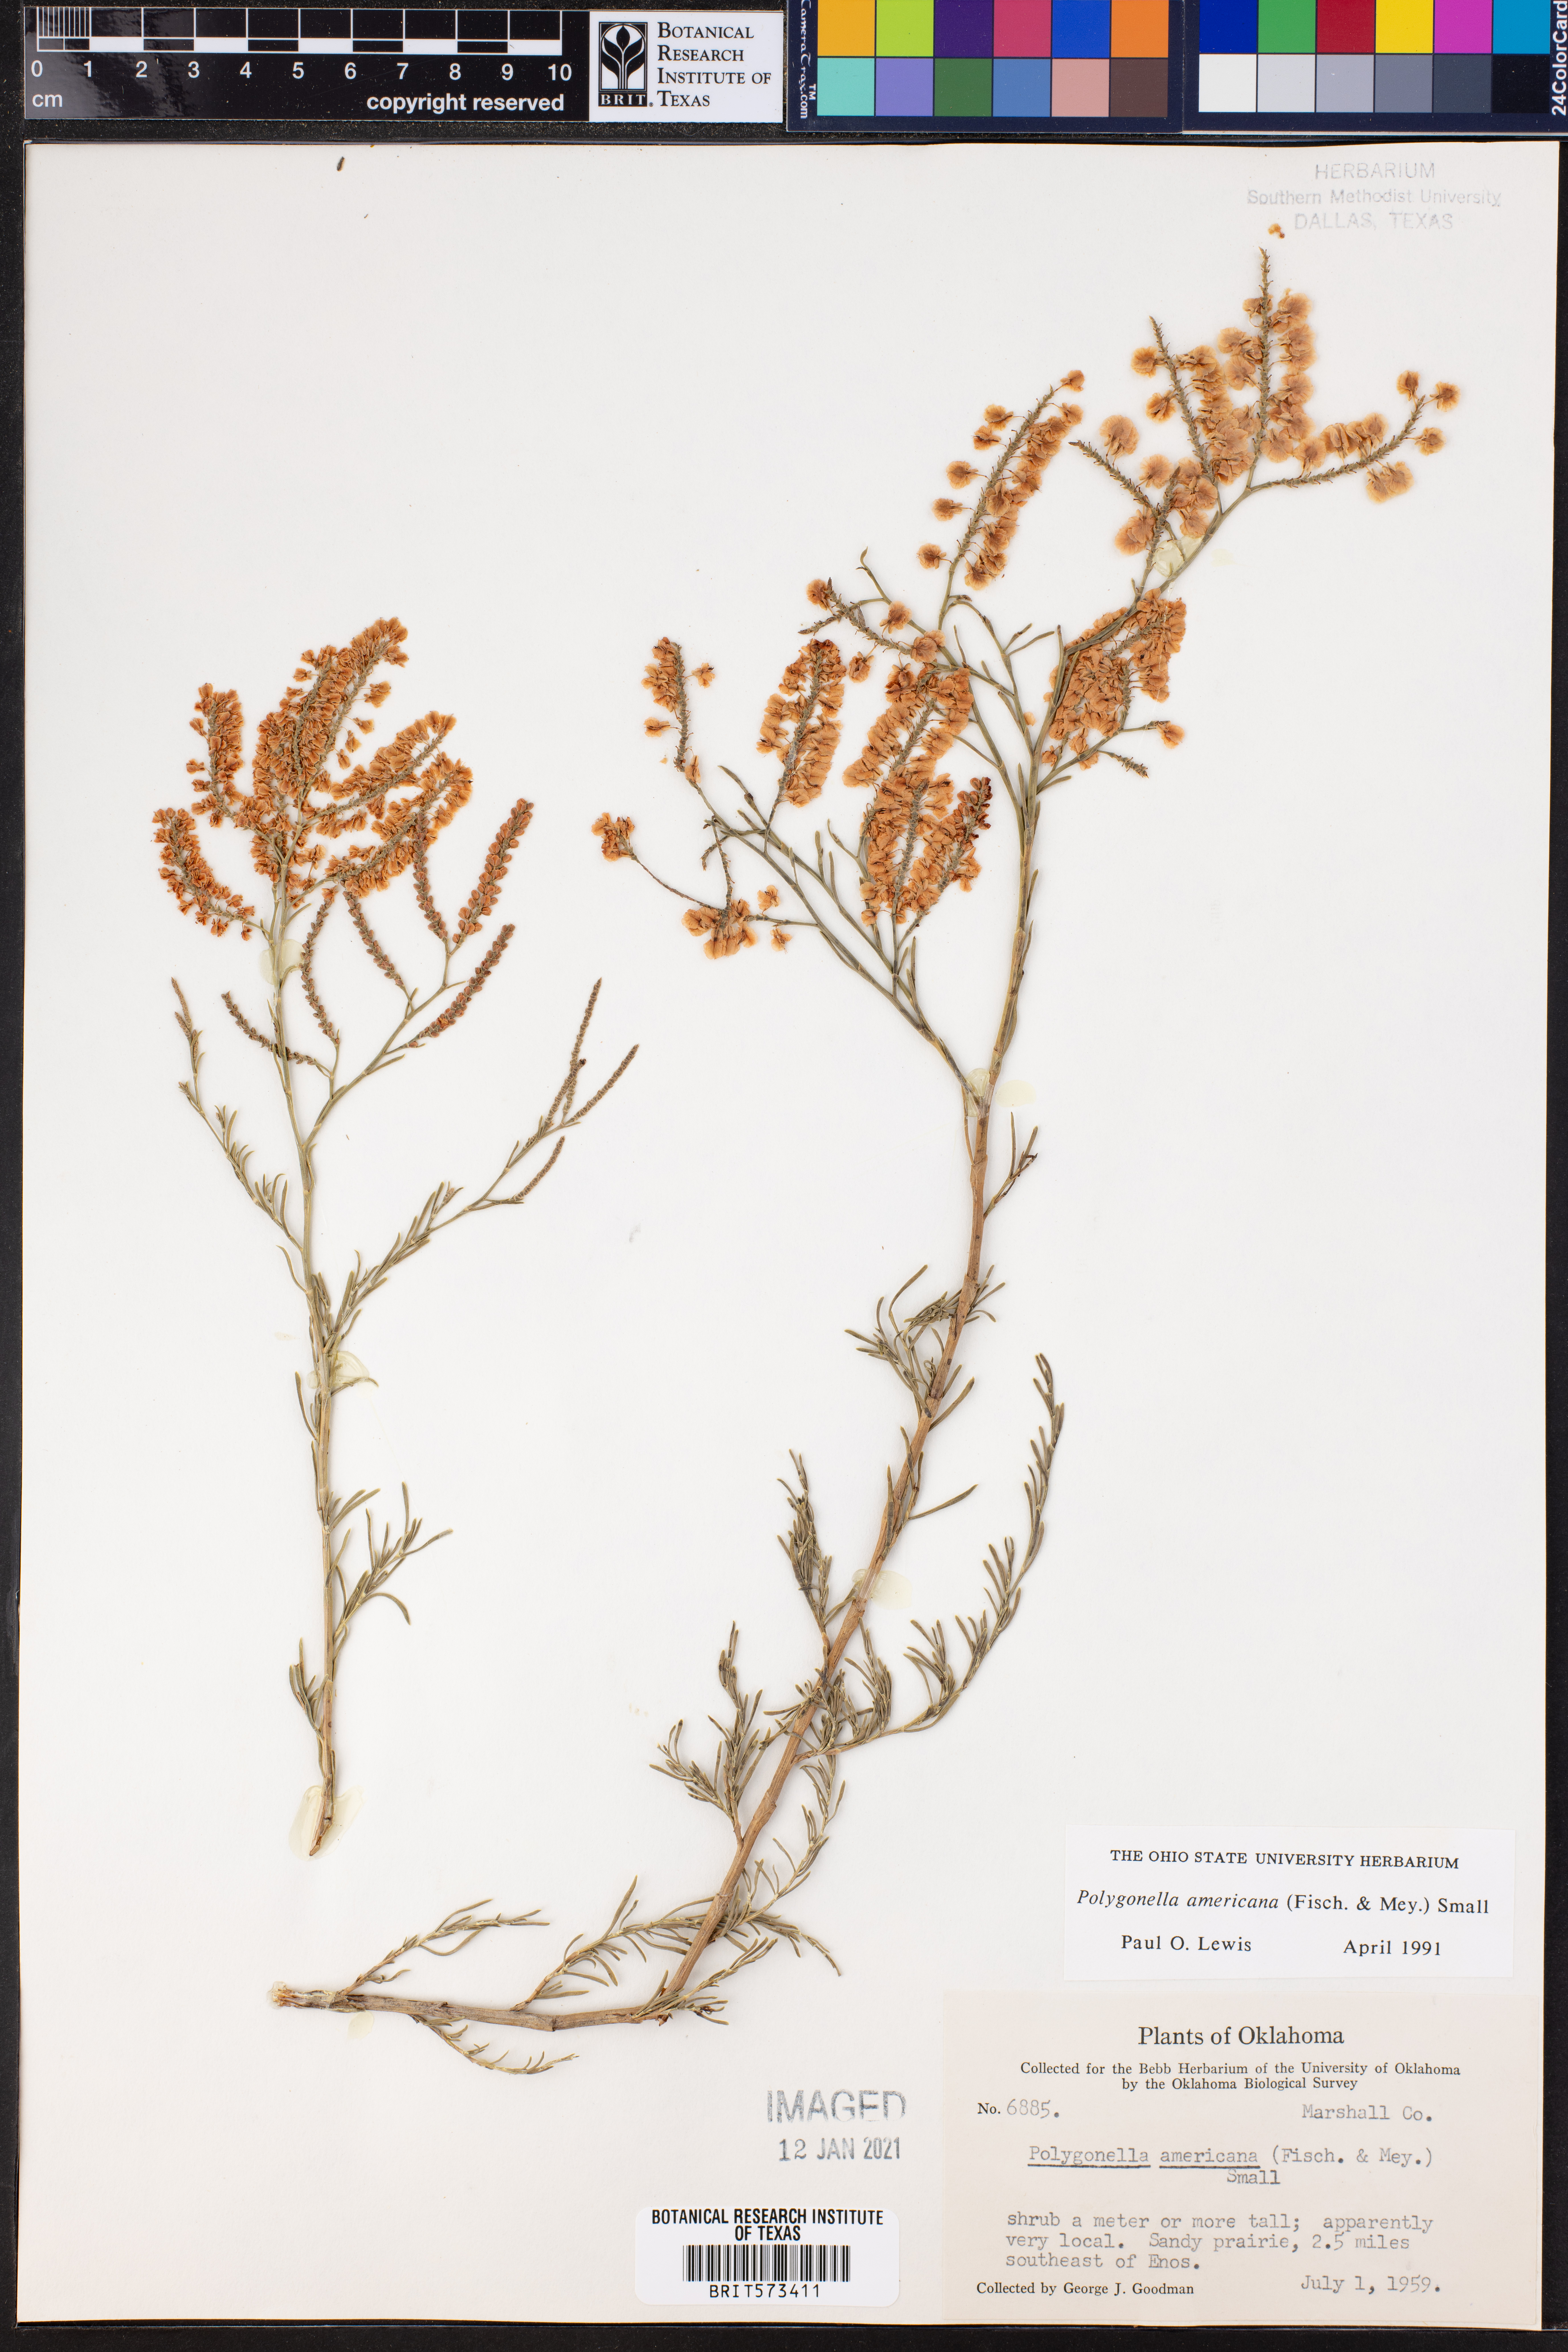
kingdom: Plantae
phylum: Tracheophyta
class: Magnoliopsida
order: Caryophyllales
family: Polygonaceae
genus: Polygonella
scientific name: Polygonella americana
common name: Southern jointweed
